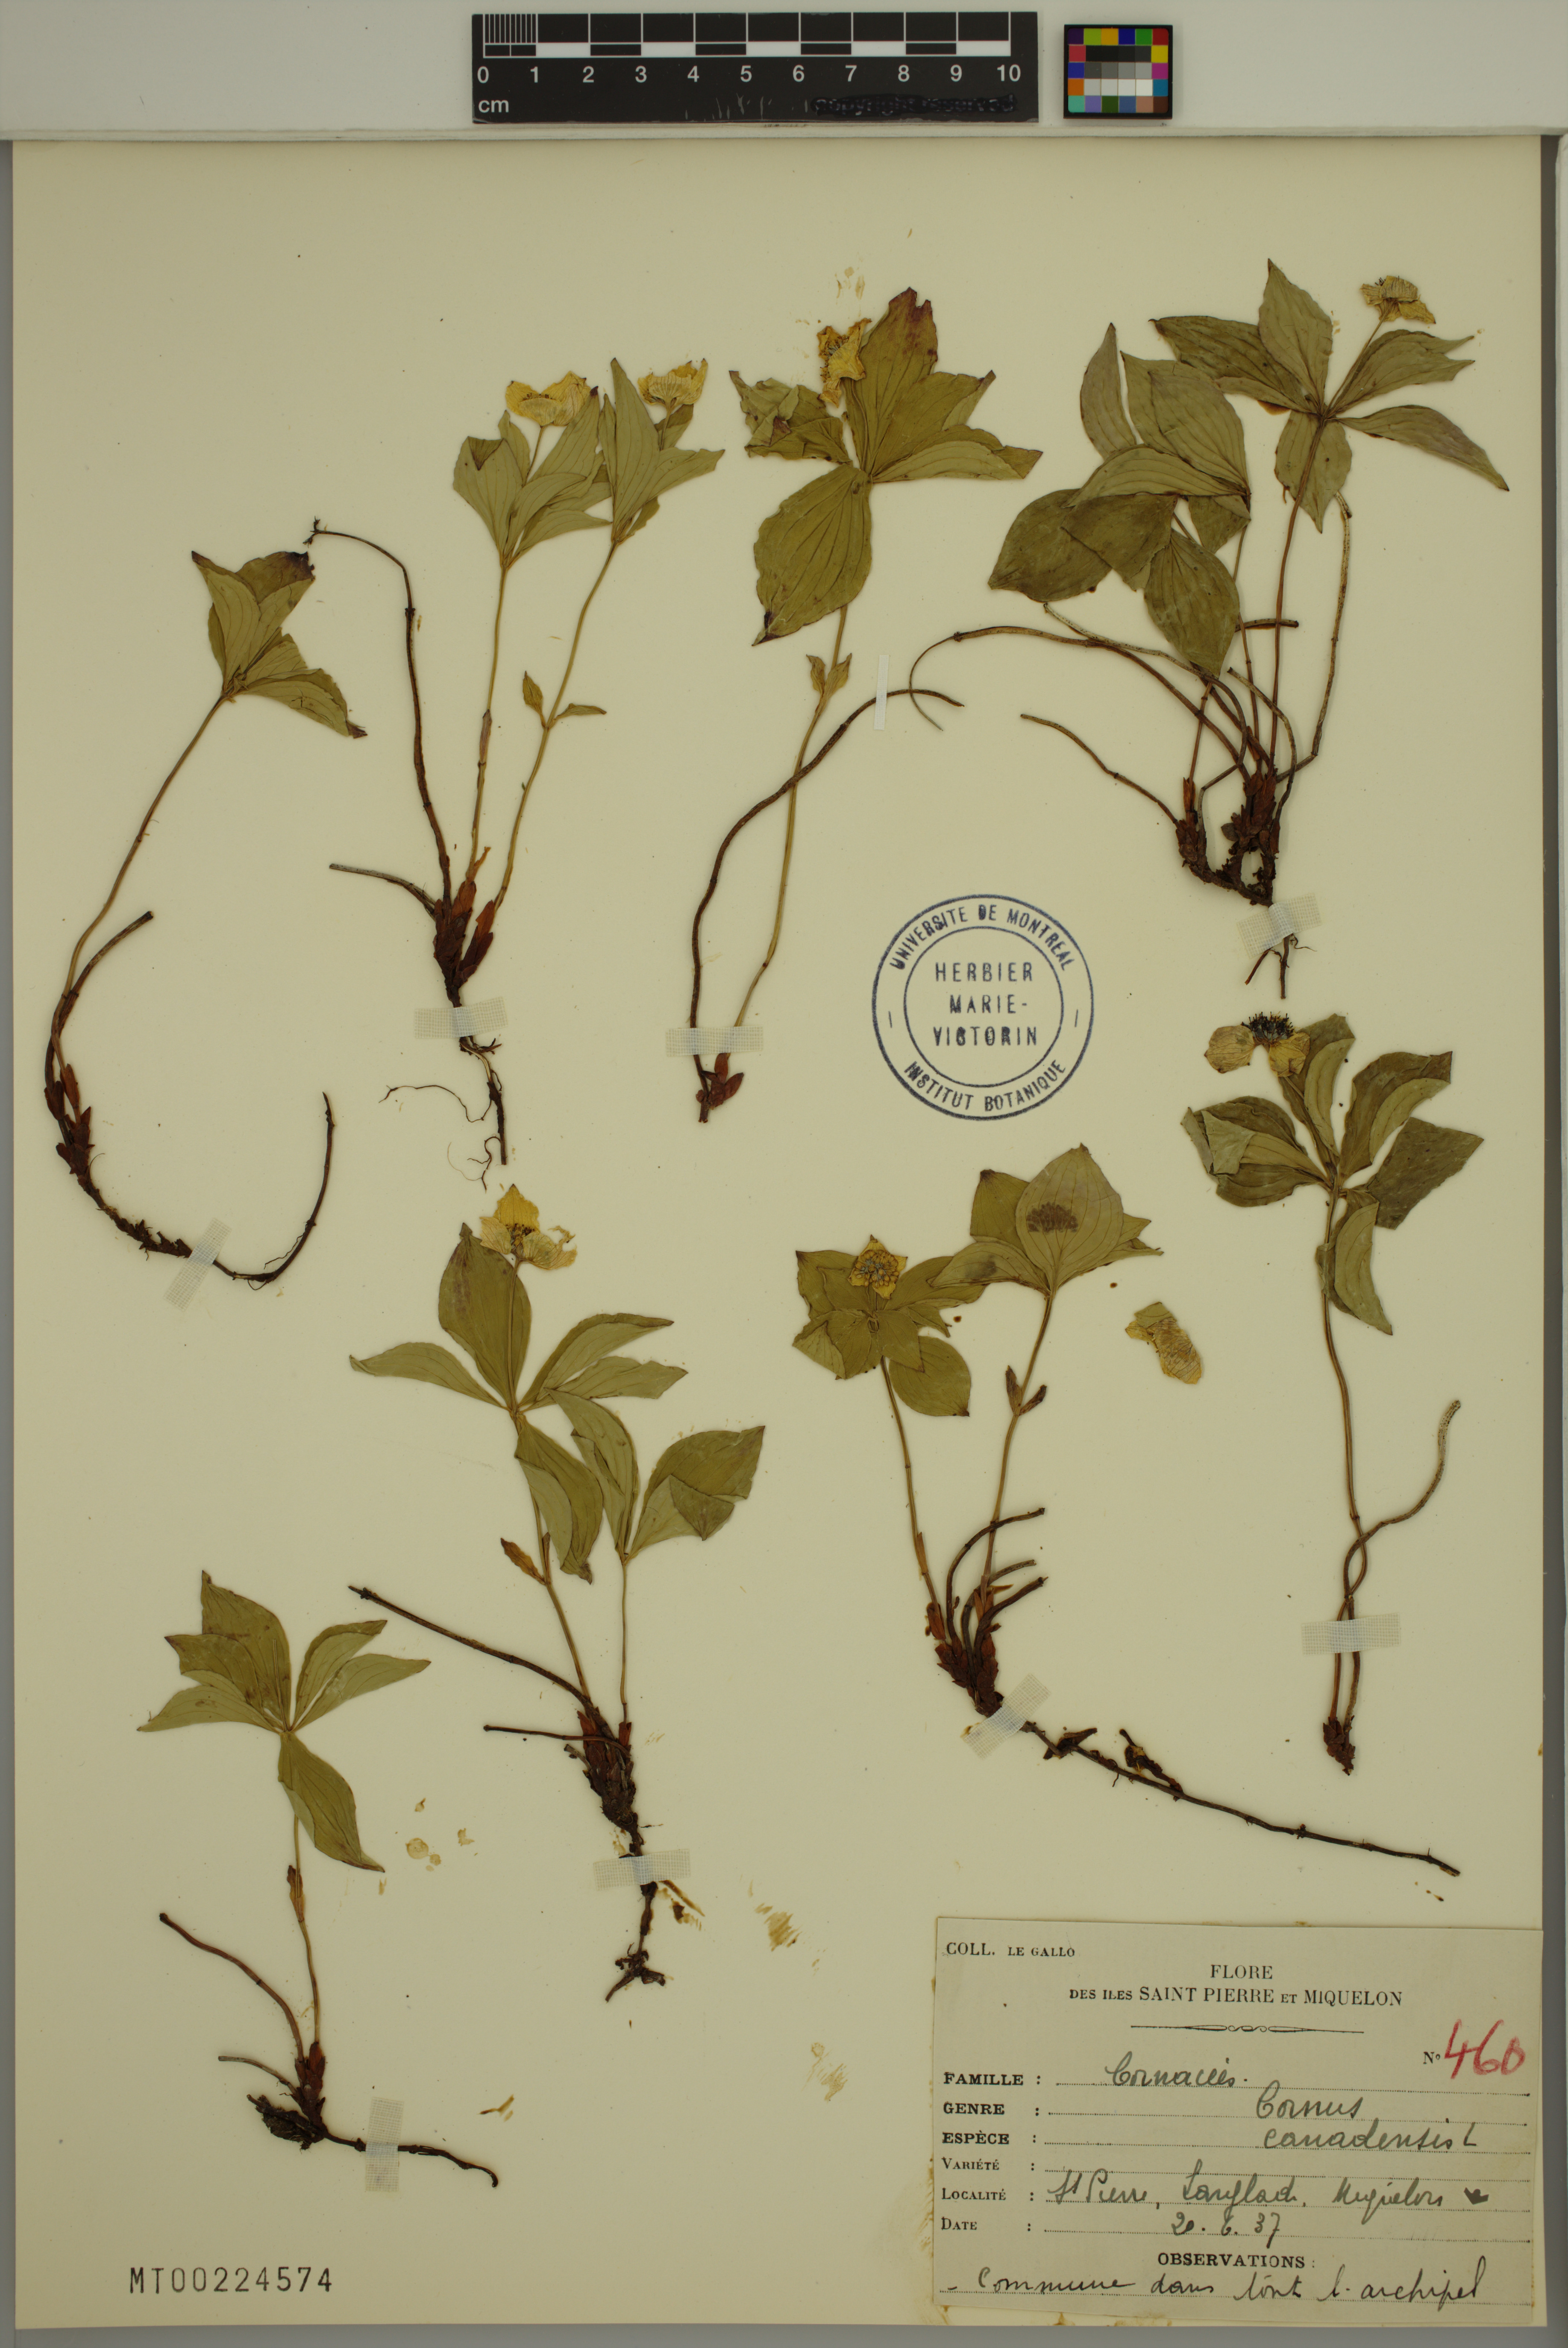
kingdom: Plantae
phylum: Tracheophyta
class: Magnoliopsida
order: Cornales
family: Cornaceae
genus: Cornus
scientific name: Cornus canadensis
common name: Creeping dogwood
